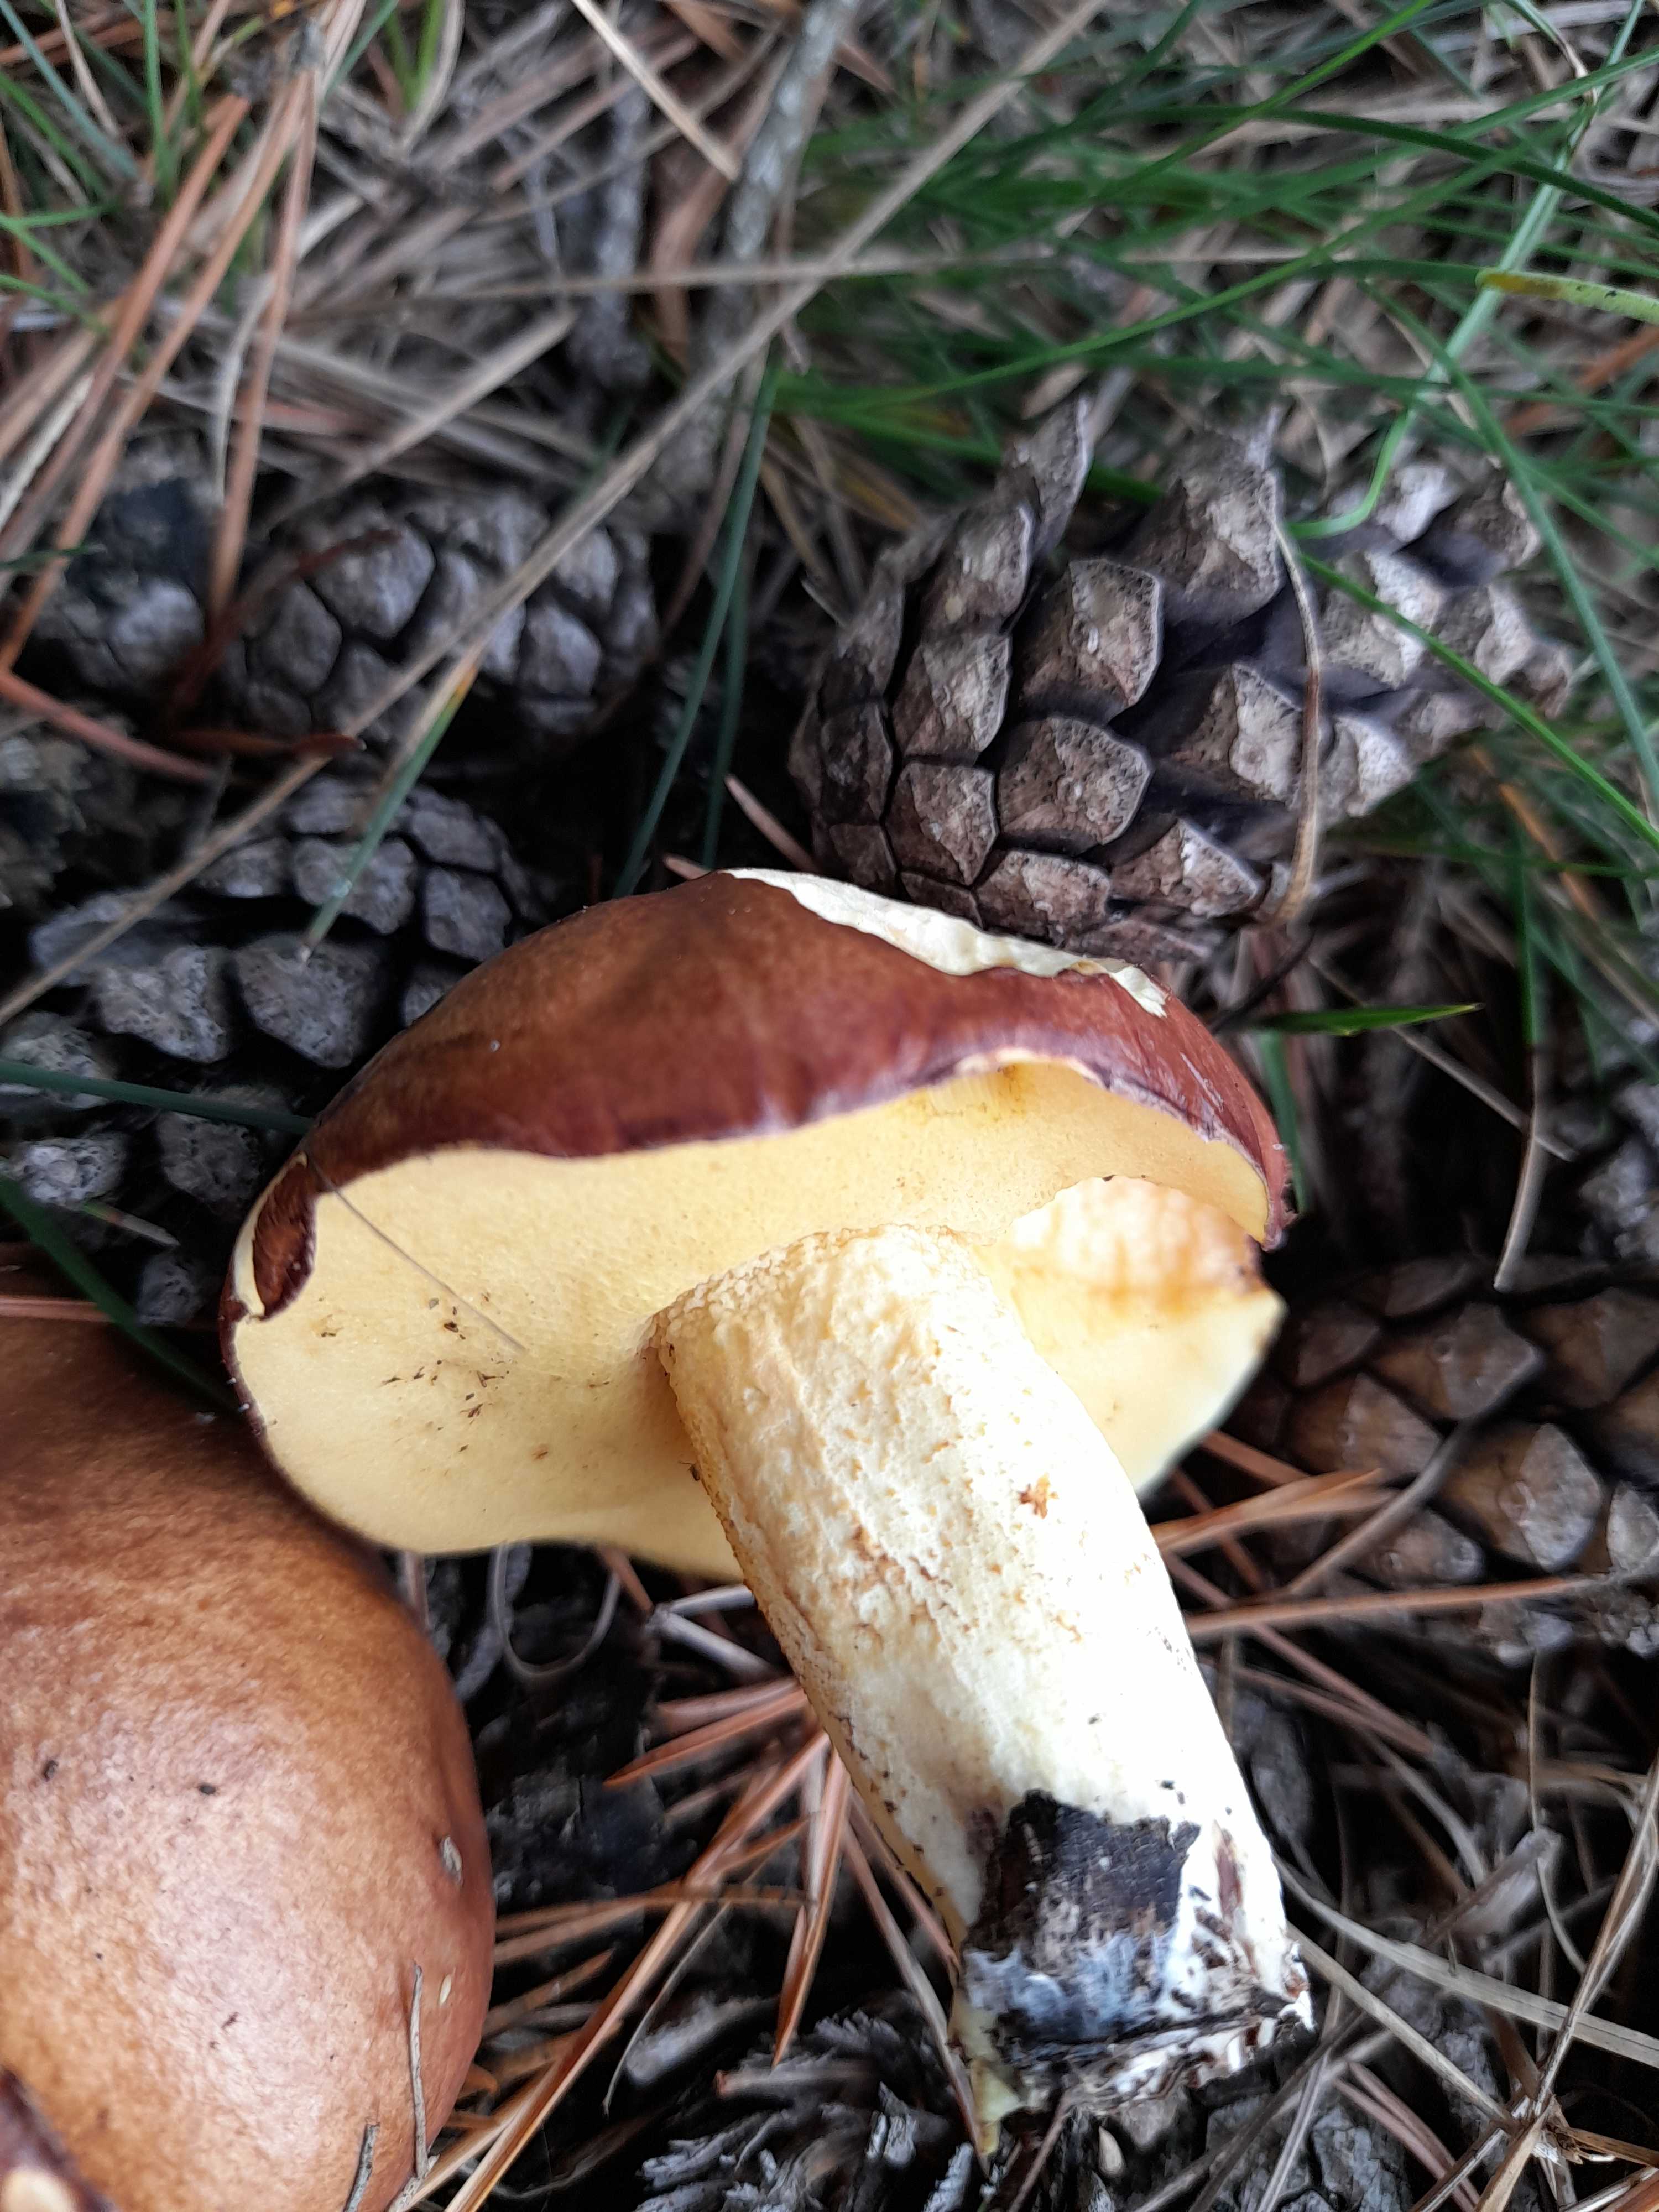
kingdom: Fungi
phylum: Basidiomycota
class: Agaricomycetes
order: Boletales
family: Suillaceae
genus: Suillus
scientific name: Suillus granulatus
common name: kornet slimrørhat
